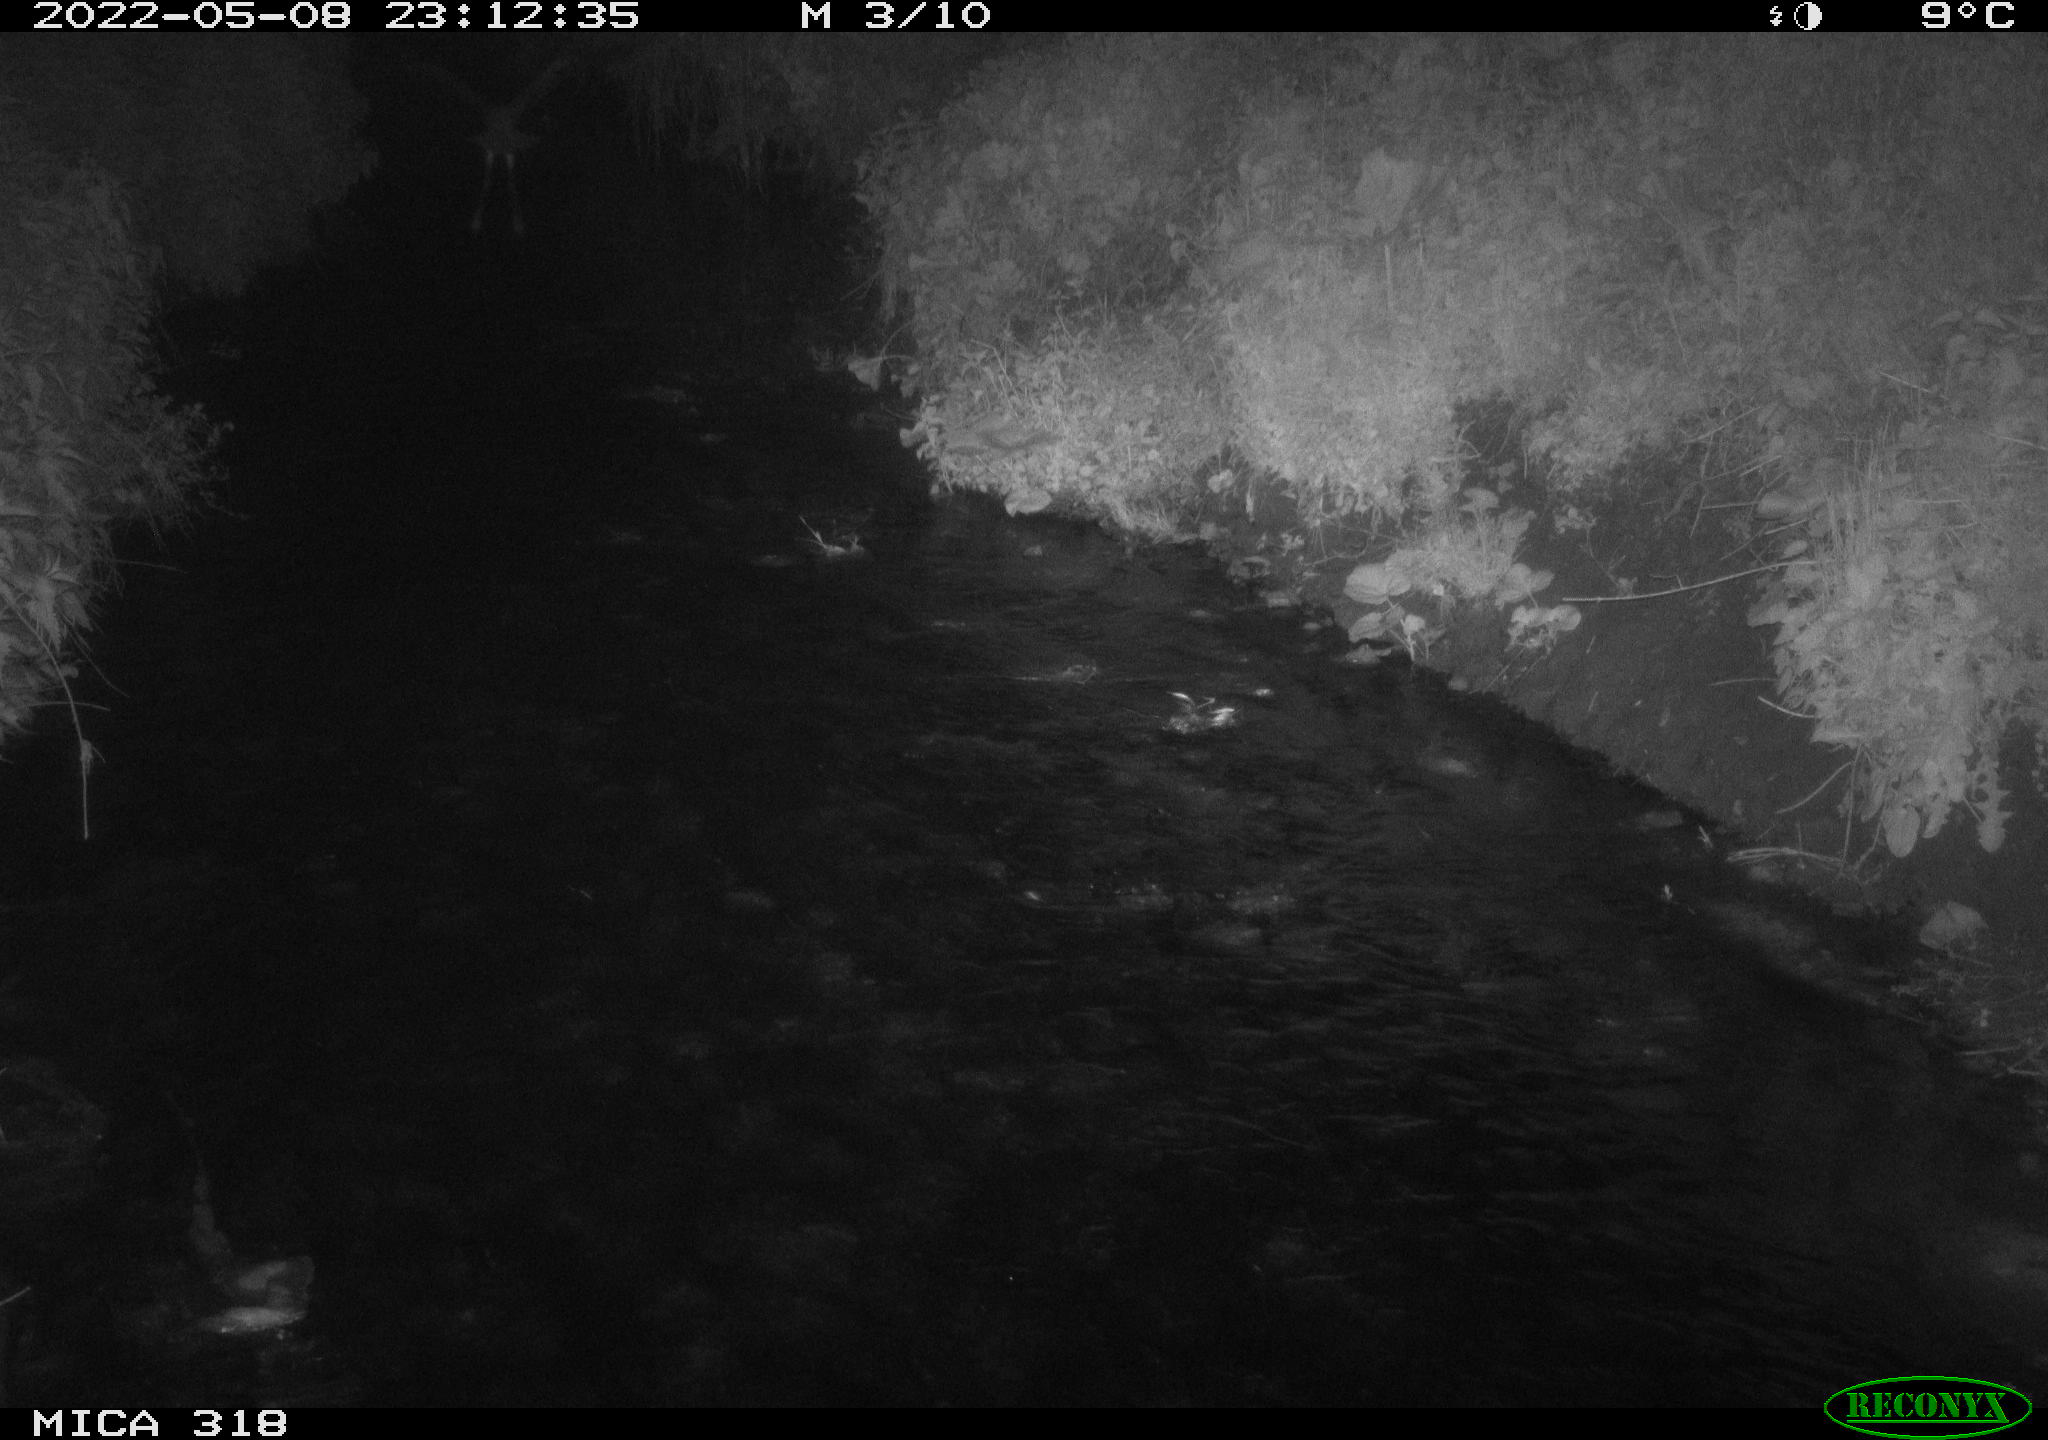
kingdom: Animalia
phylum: Chordata
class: Aves
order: Pelecaniformes
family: Ardeidae
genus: Ardea
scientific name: Ardea cinerea
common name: Grey heron
